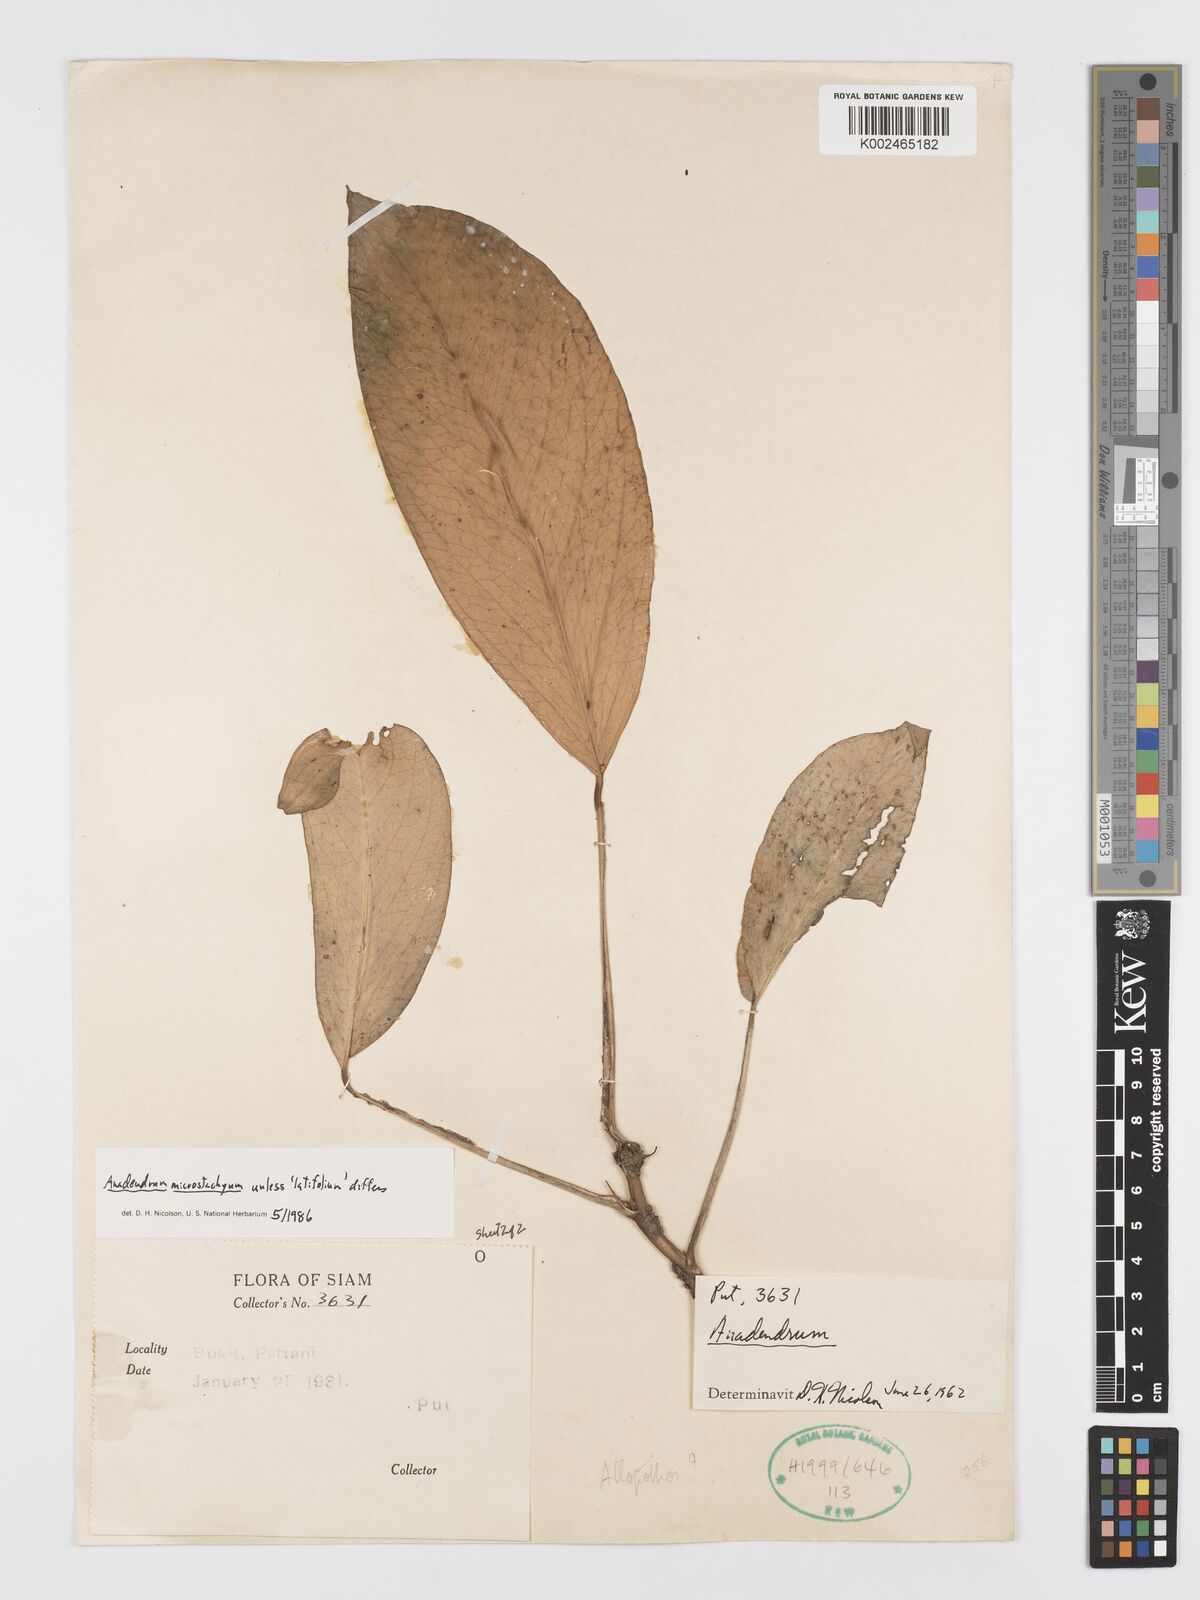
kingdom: Plantae
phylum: Tracheophyta
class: Liliopsida
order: Alismatales
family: Araceae
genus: Anadendrum
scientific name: Anadendrum microstachyum
